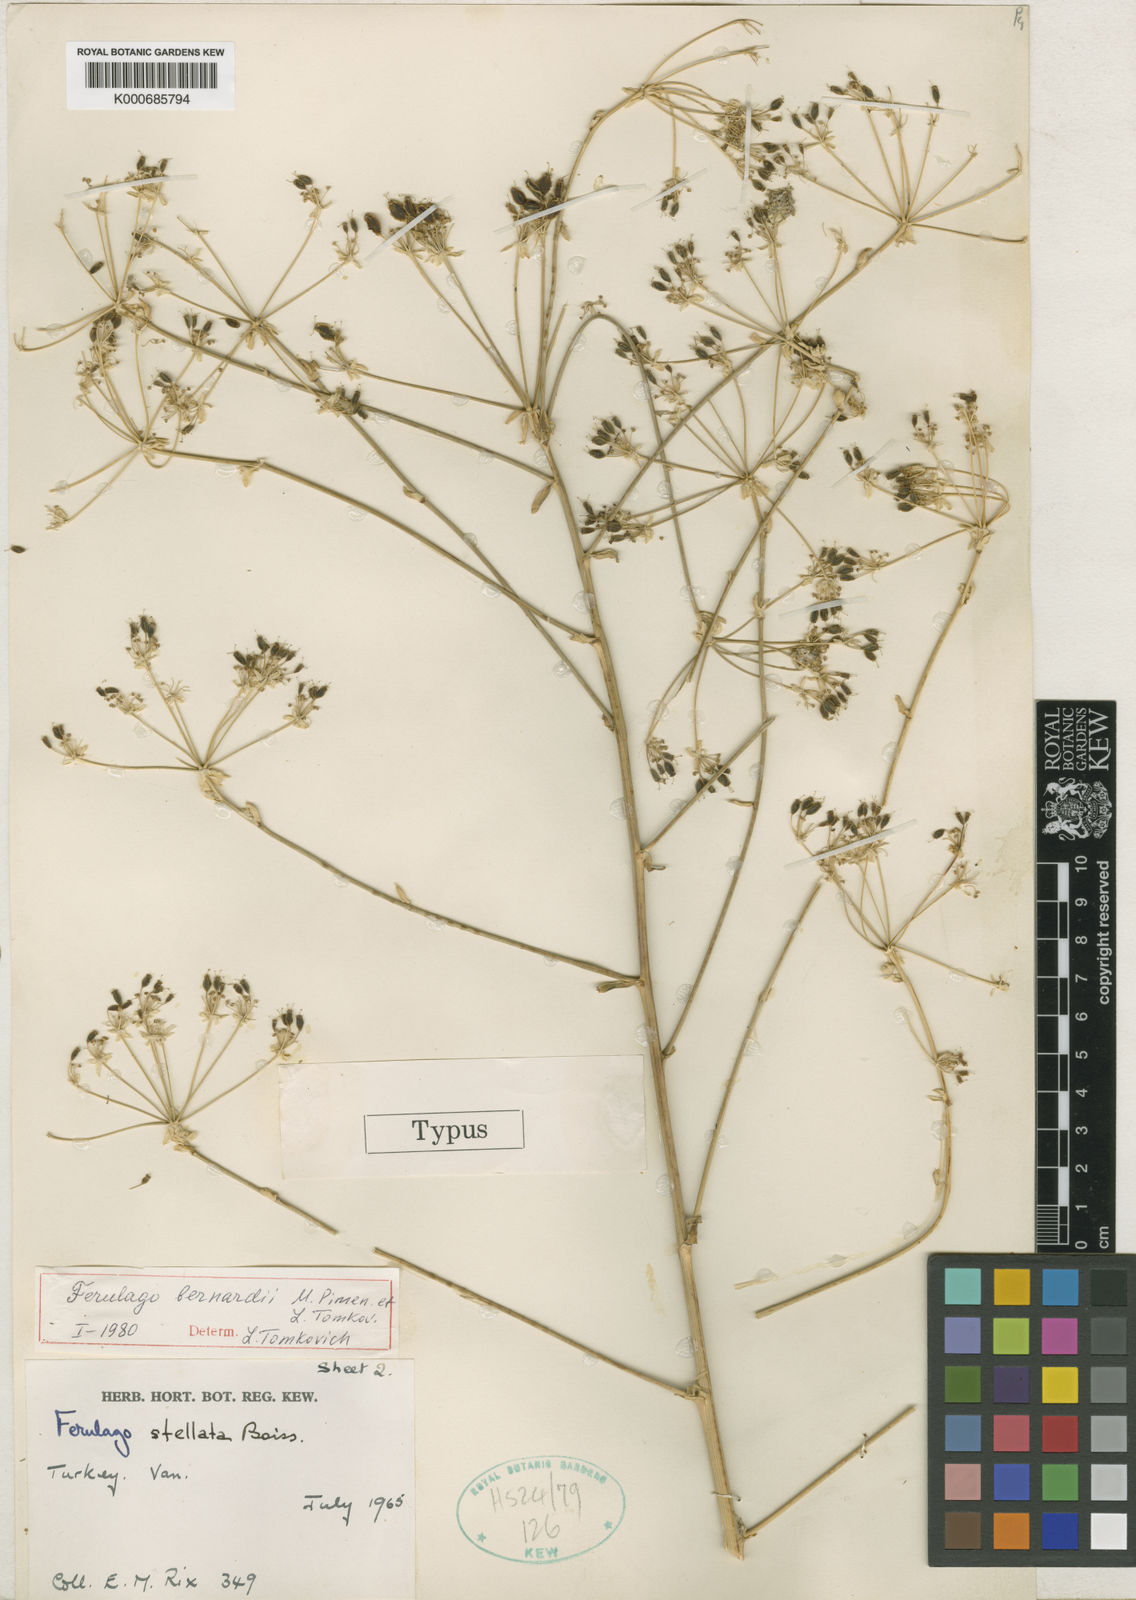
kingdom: Plantae
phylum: Tracheophyta
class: Magnoliopsida
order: Apiales
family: Apiaceae
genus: Ferulago
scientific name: Ferulago bernardii
